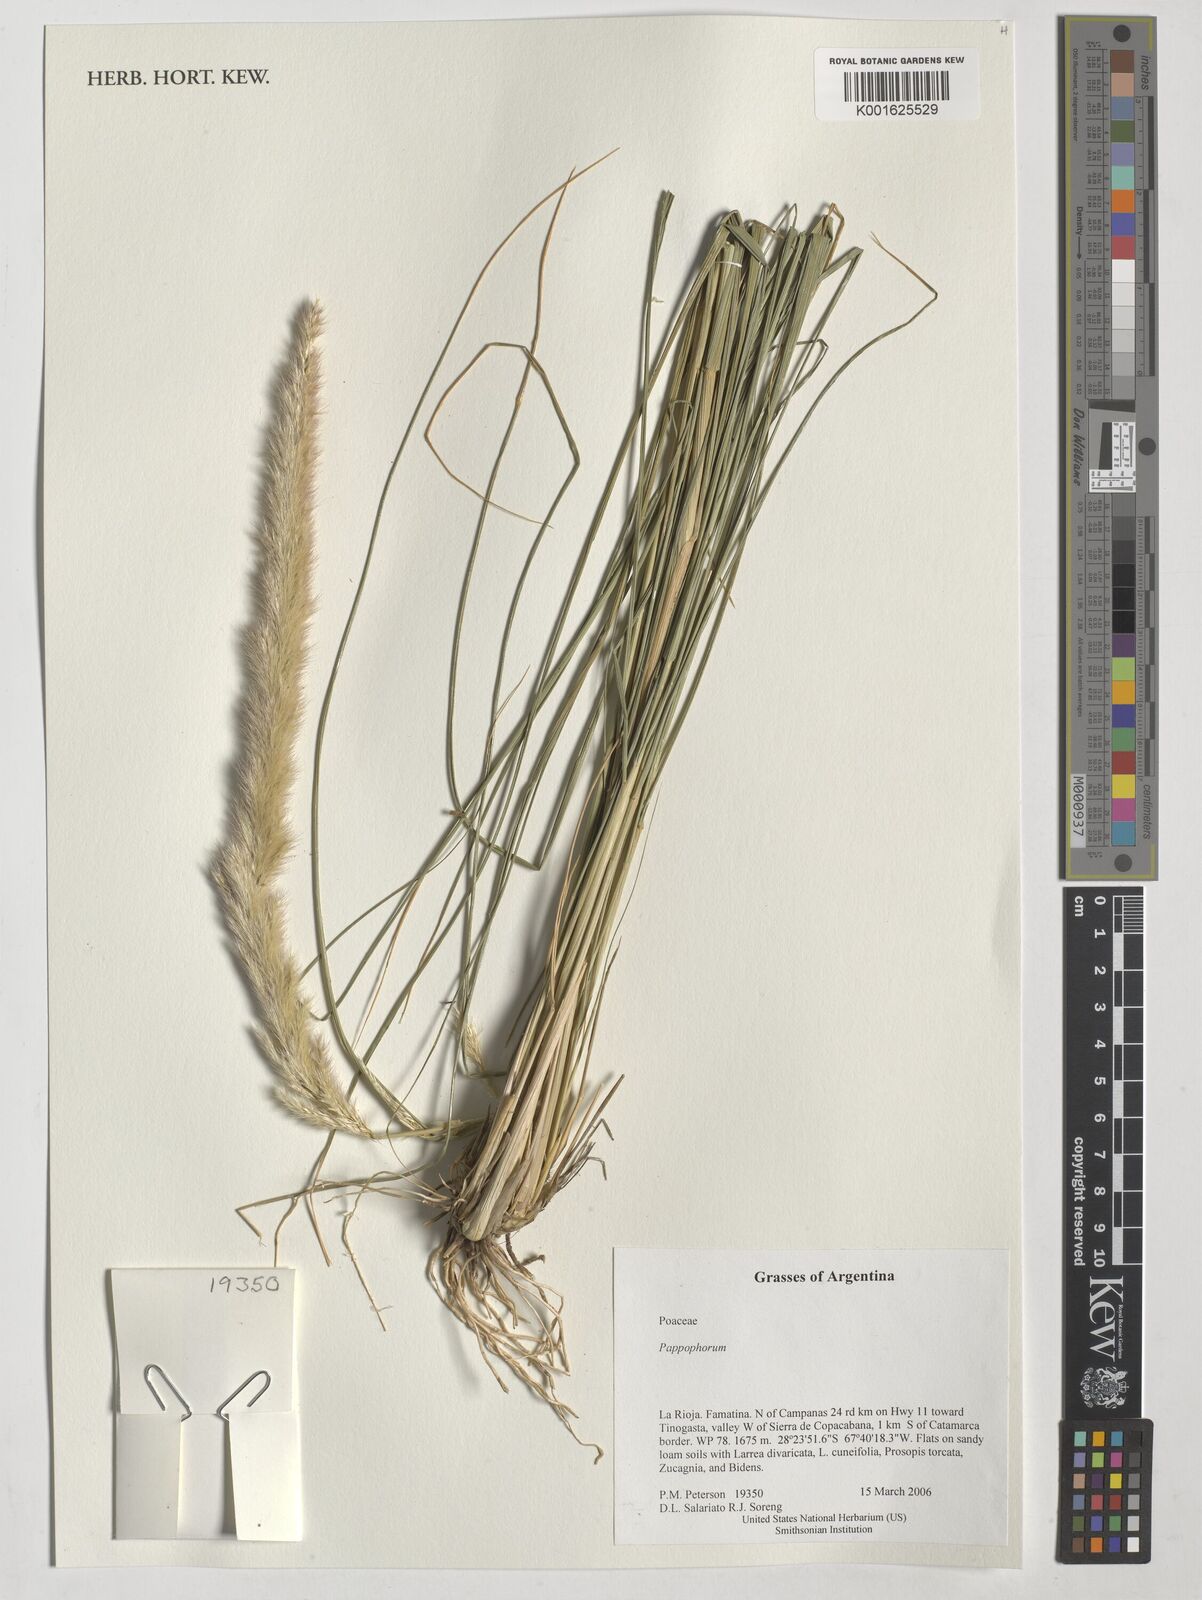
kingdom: Plantae
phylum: Tracheophyta
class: Liliopsida
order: Poales
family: Poaceae
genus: Pappophorum
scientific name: Pappophorum
